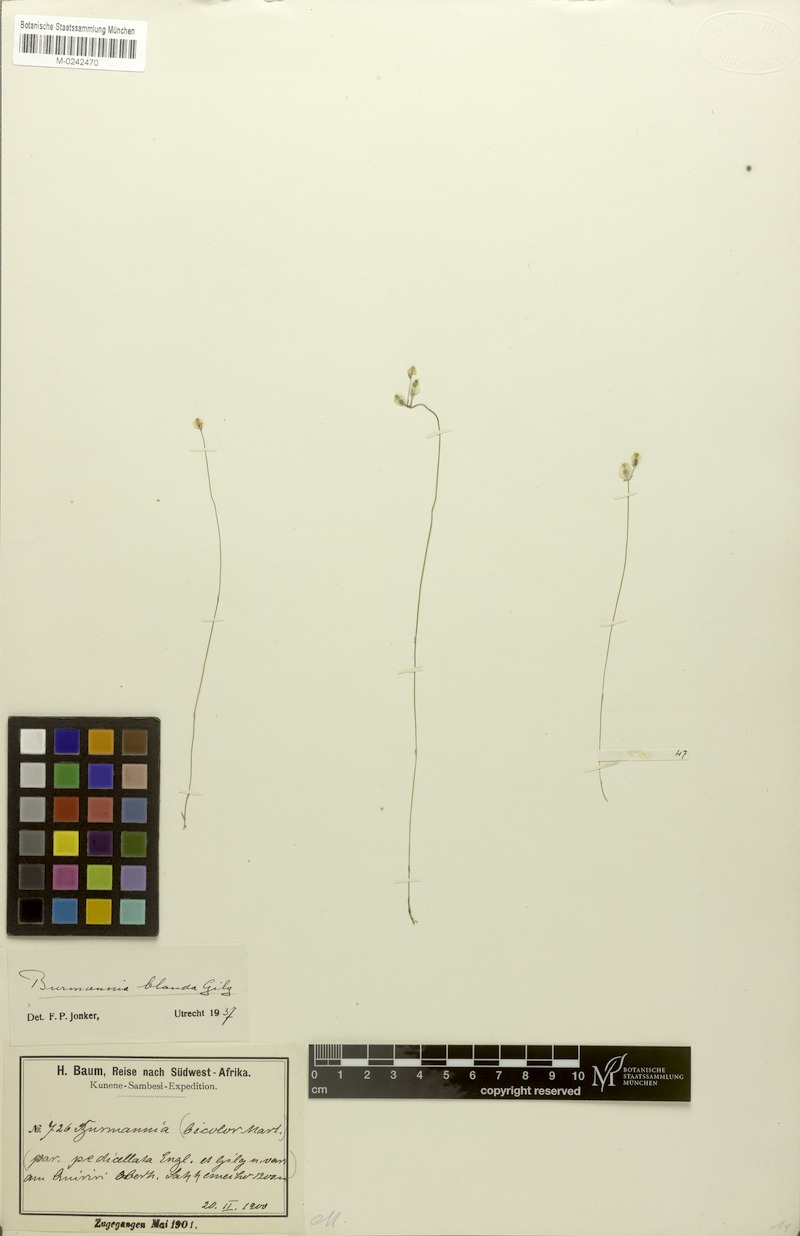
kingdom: Plantae
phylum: Tracheophyta
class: Liliopsida
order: Dioscoreales
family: Burmanniaceae
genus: Burmannia
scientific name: Burmannia madagascariensis
